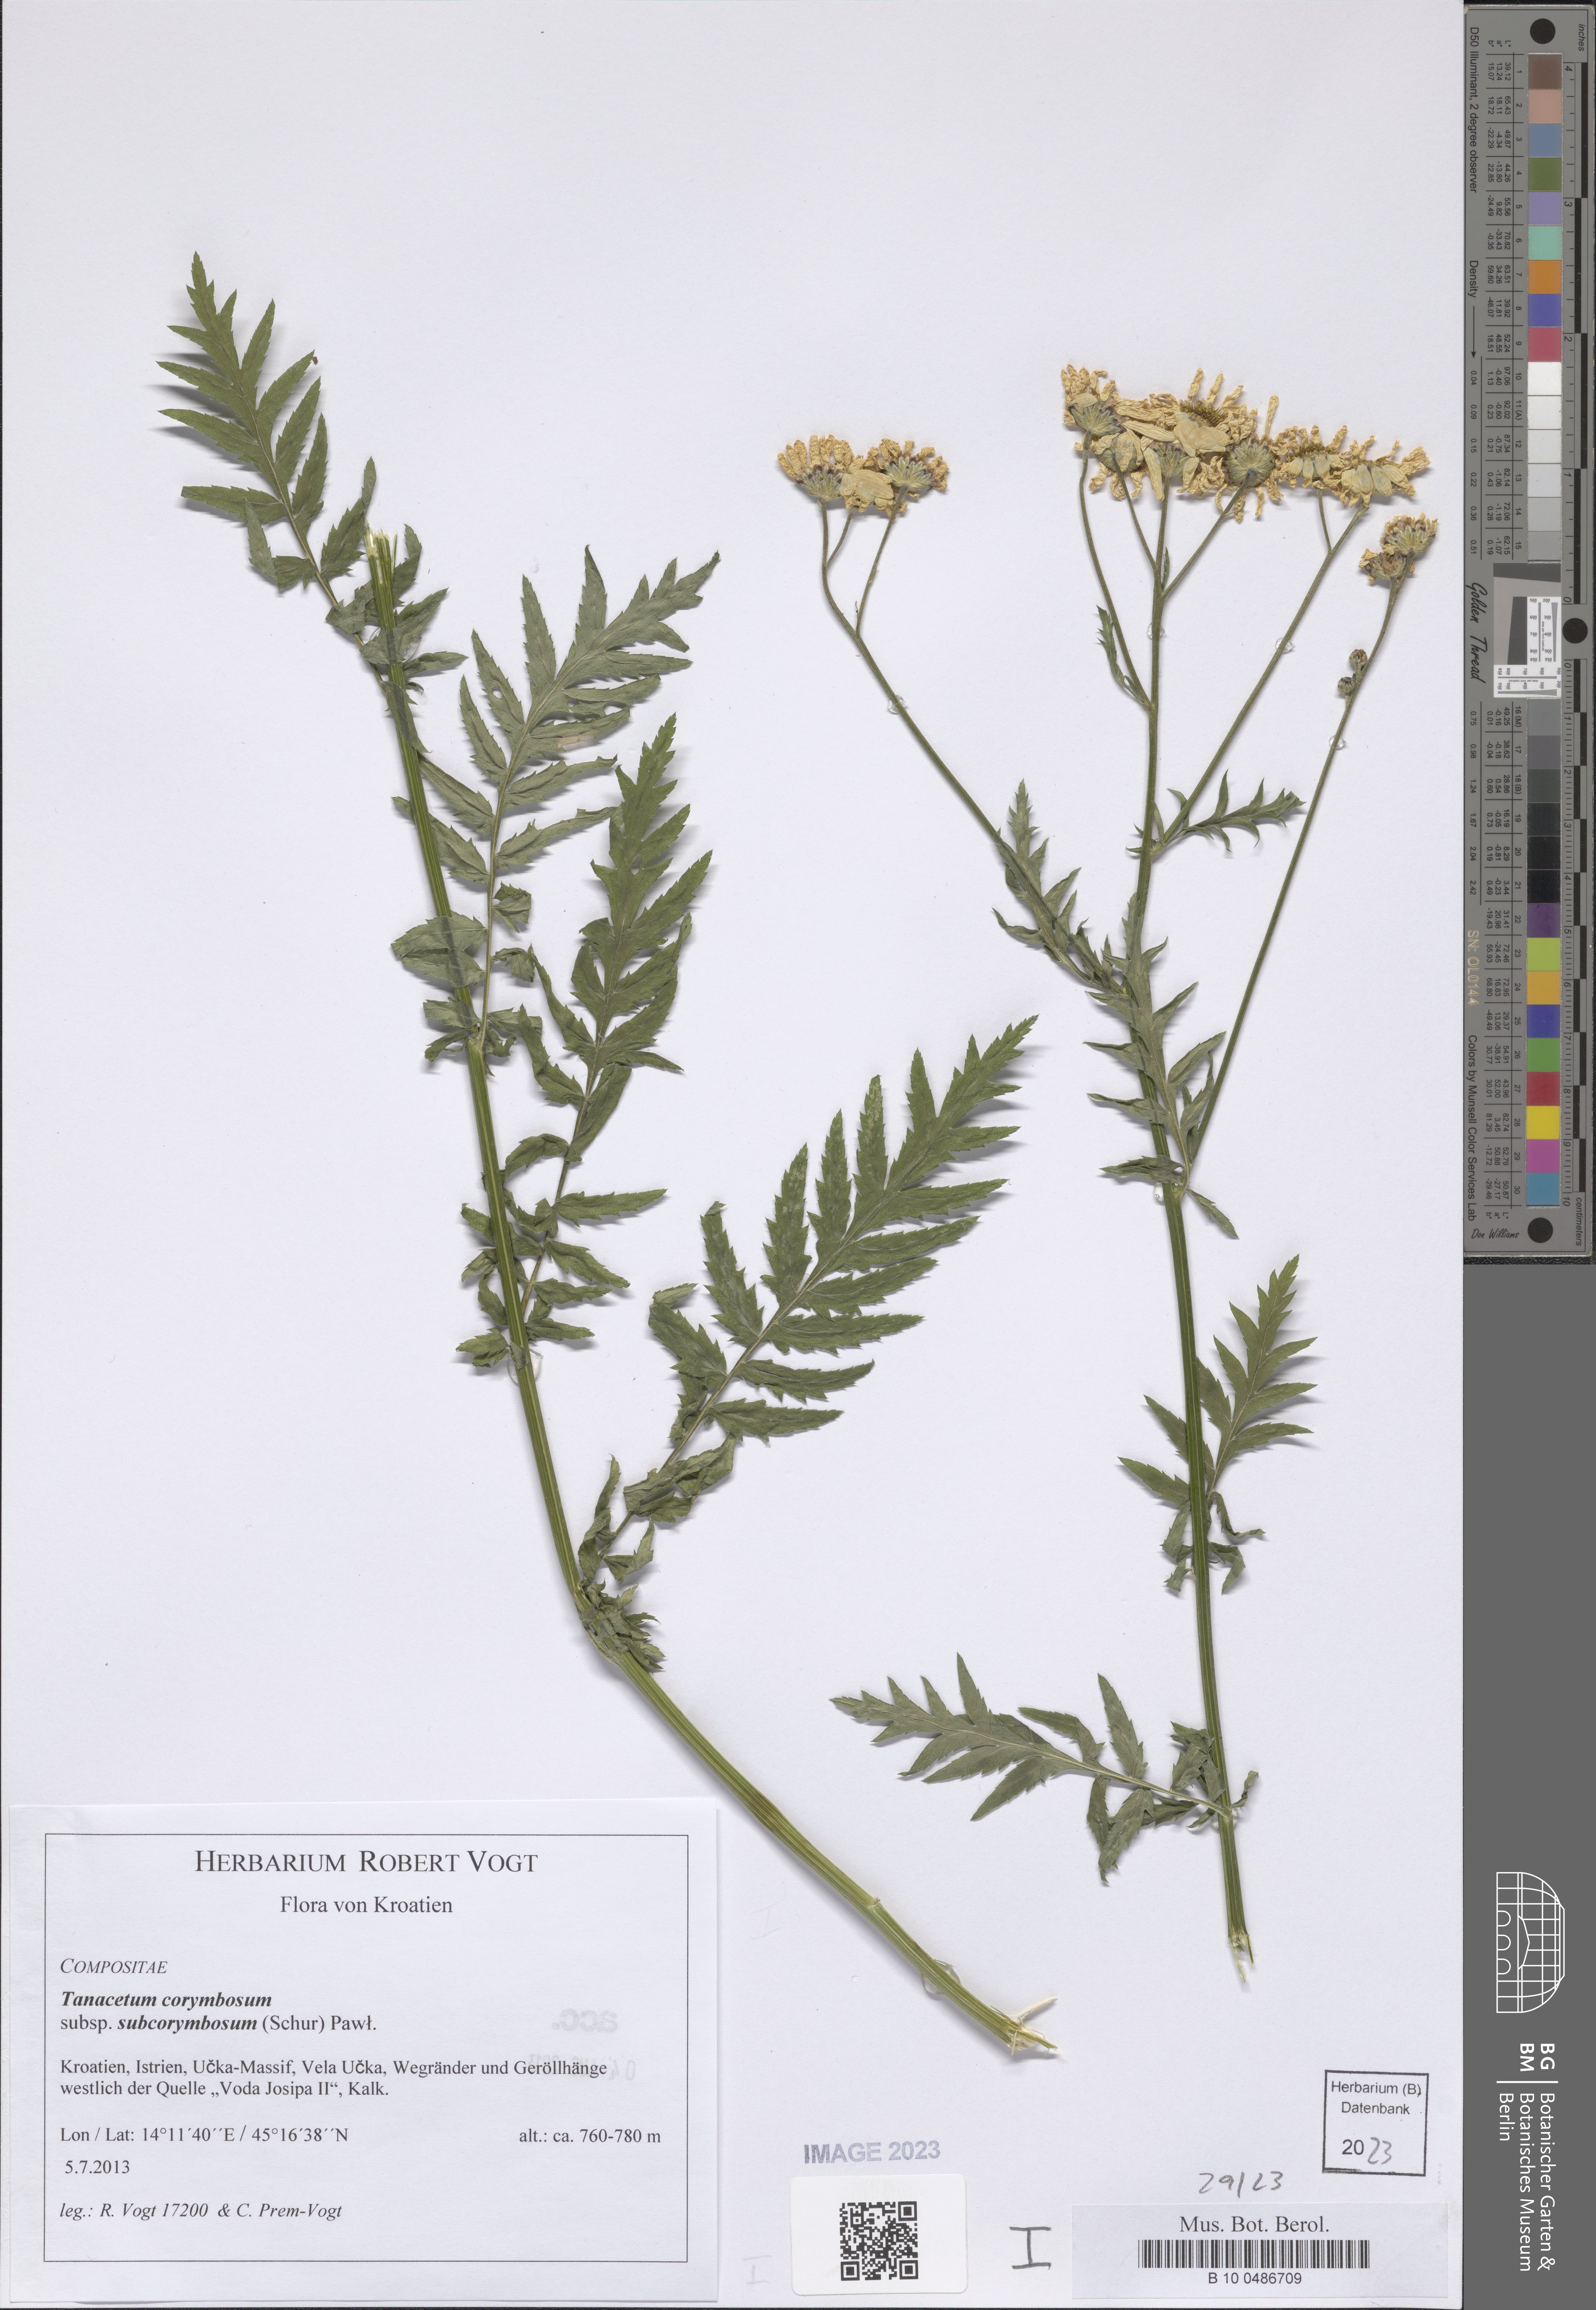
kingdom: Plantae
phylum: Tracheophyta
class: Magnoliopsida
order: Asterales
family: Asteraceae
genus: Tanacetum
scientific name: Tanacetum corymbosum
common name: Scentless feverfew
